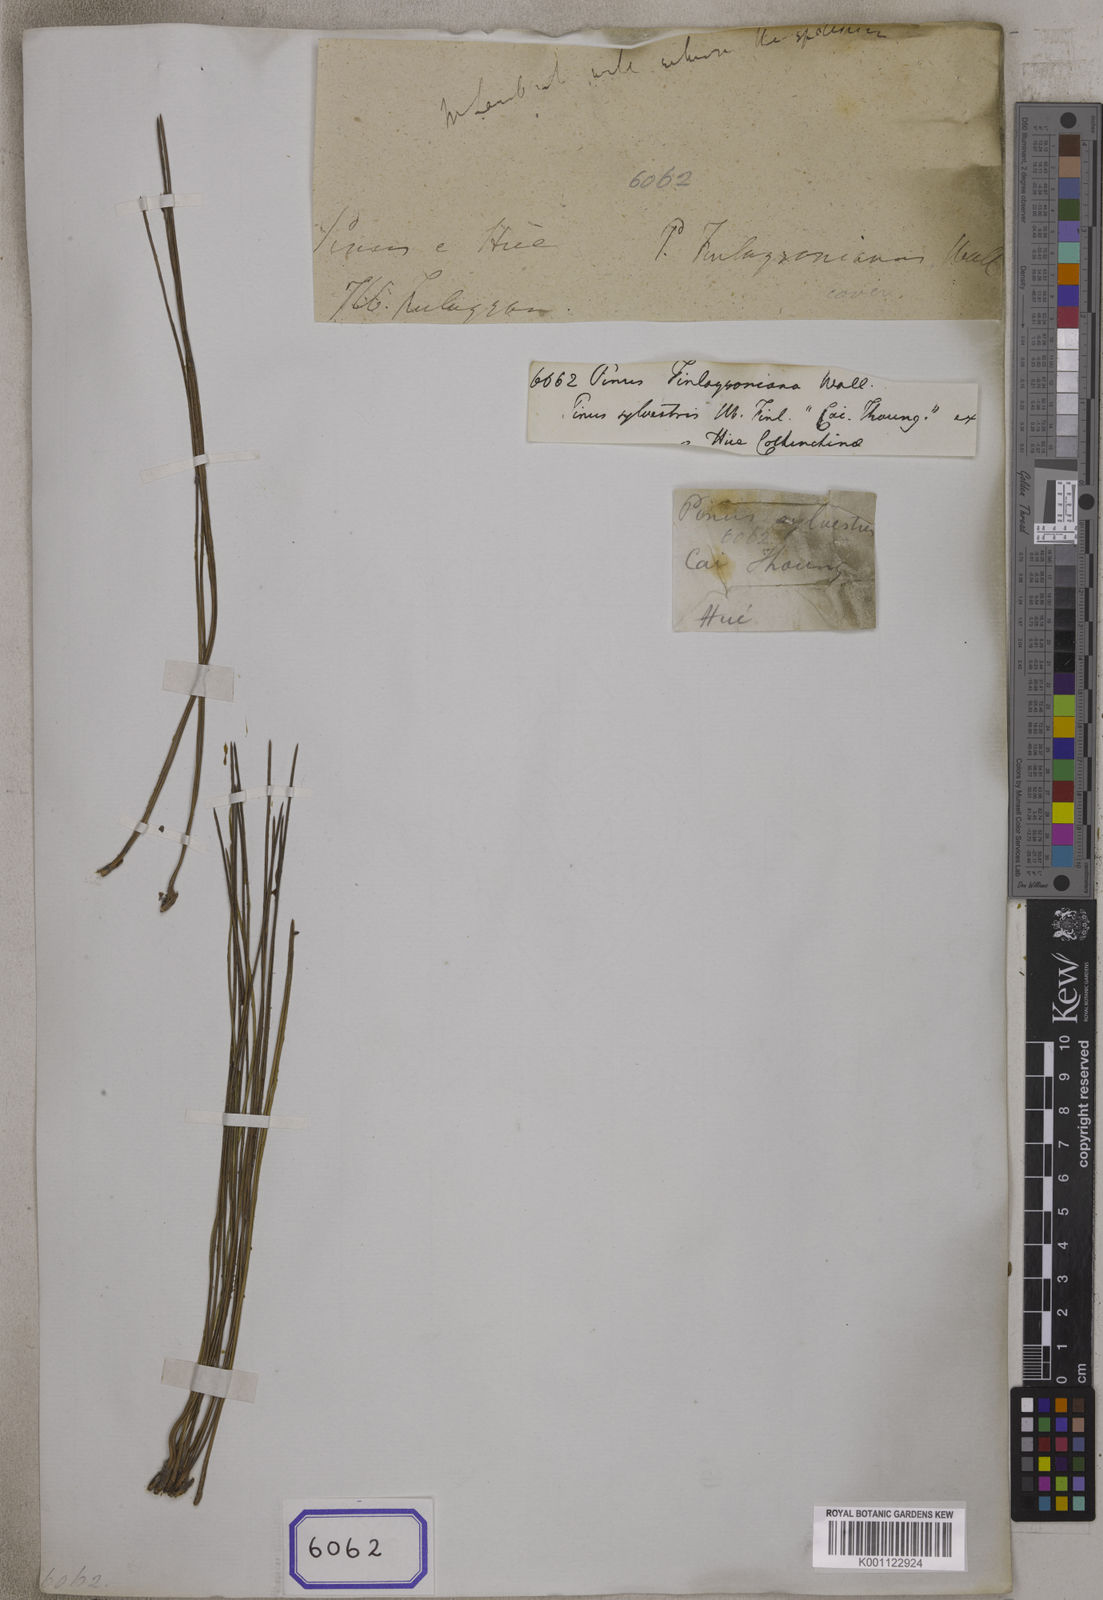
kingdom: Plantae
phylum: Tracheophyta
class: Pinopsida
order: Pinales
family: Pinaceae
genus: Pinus
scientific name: Pinus
